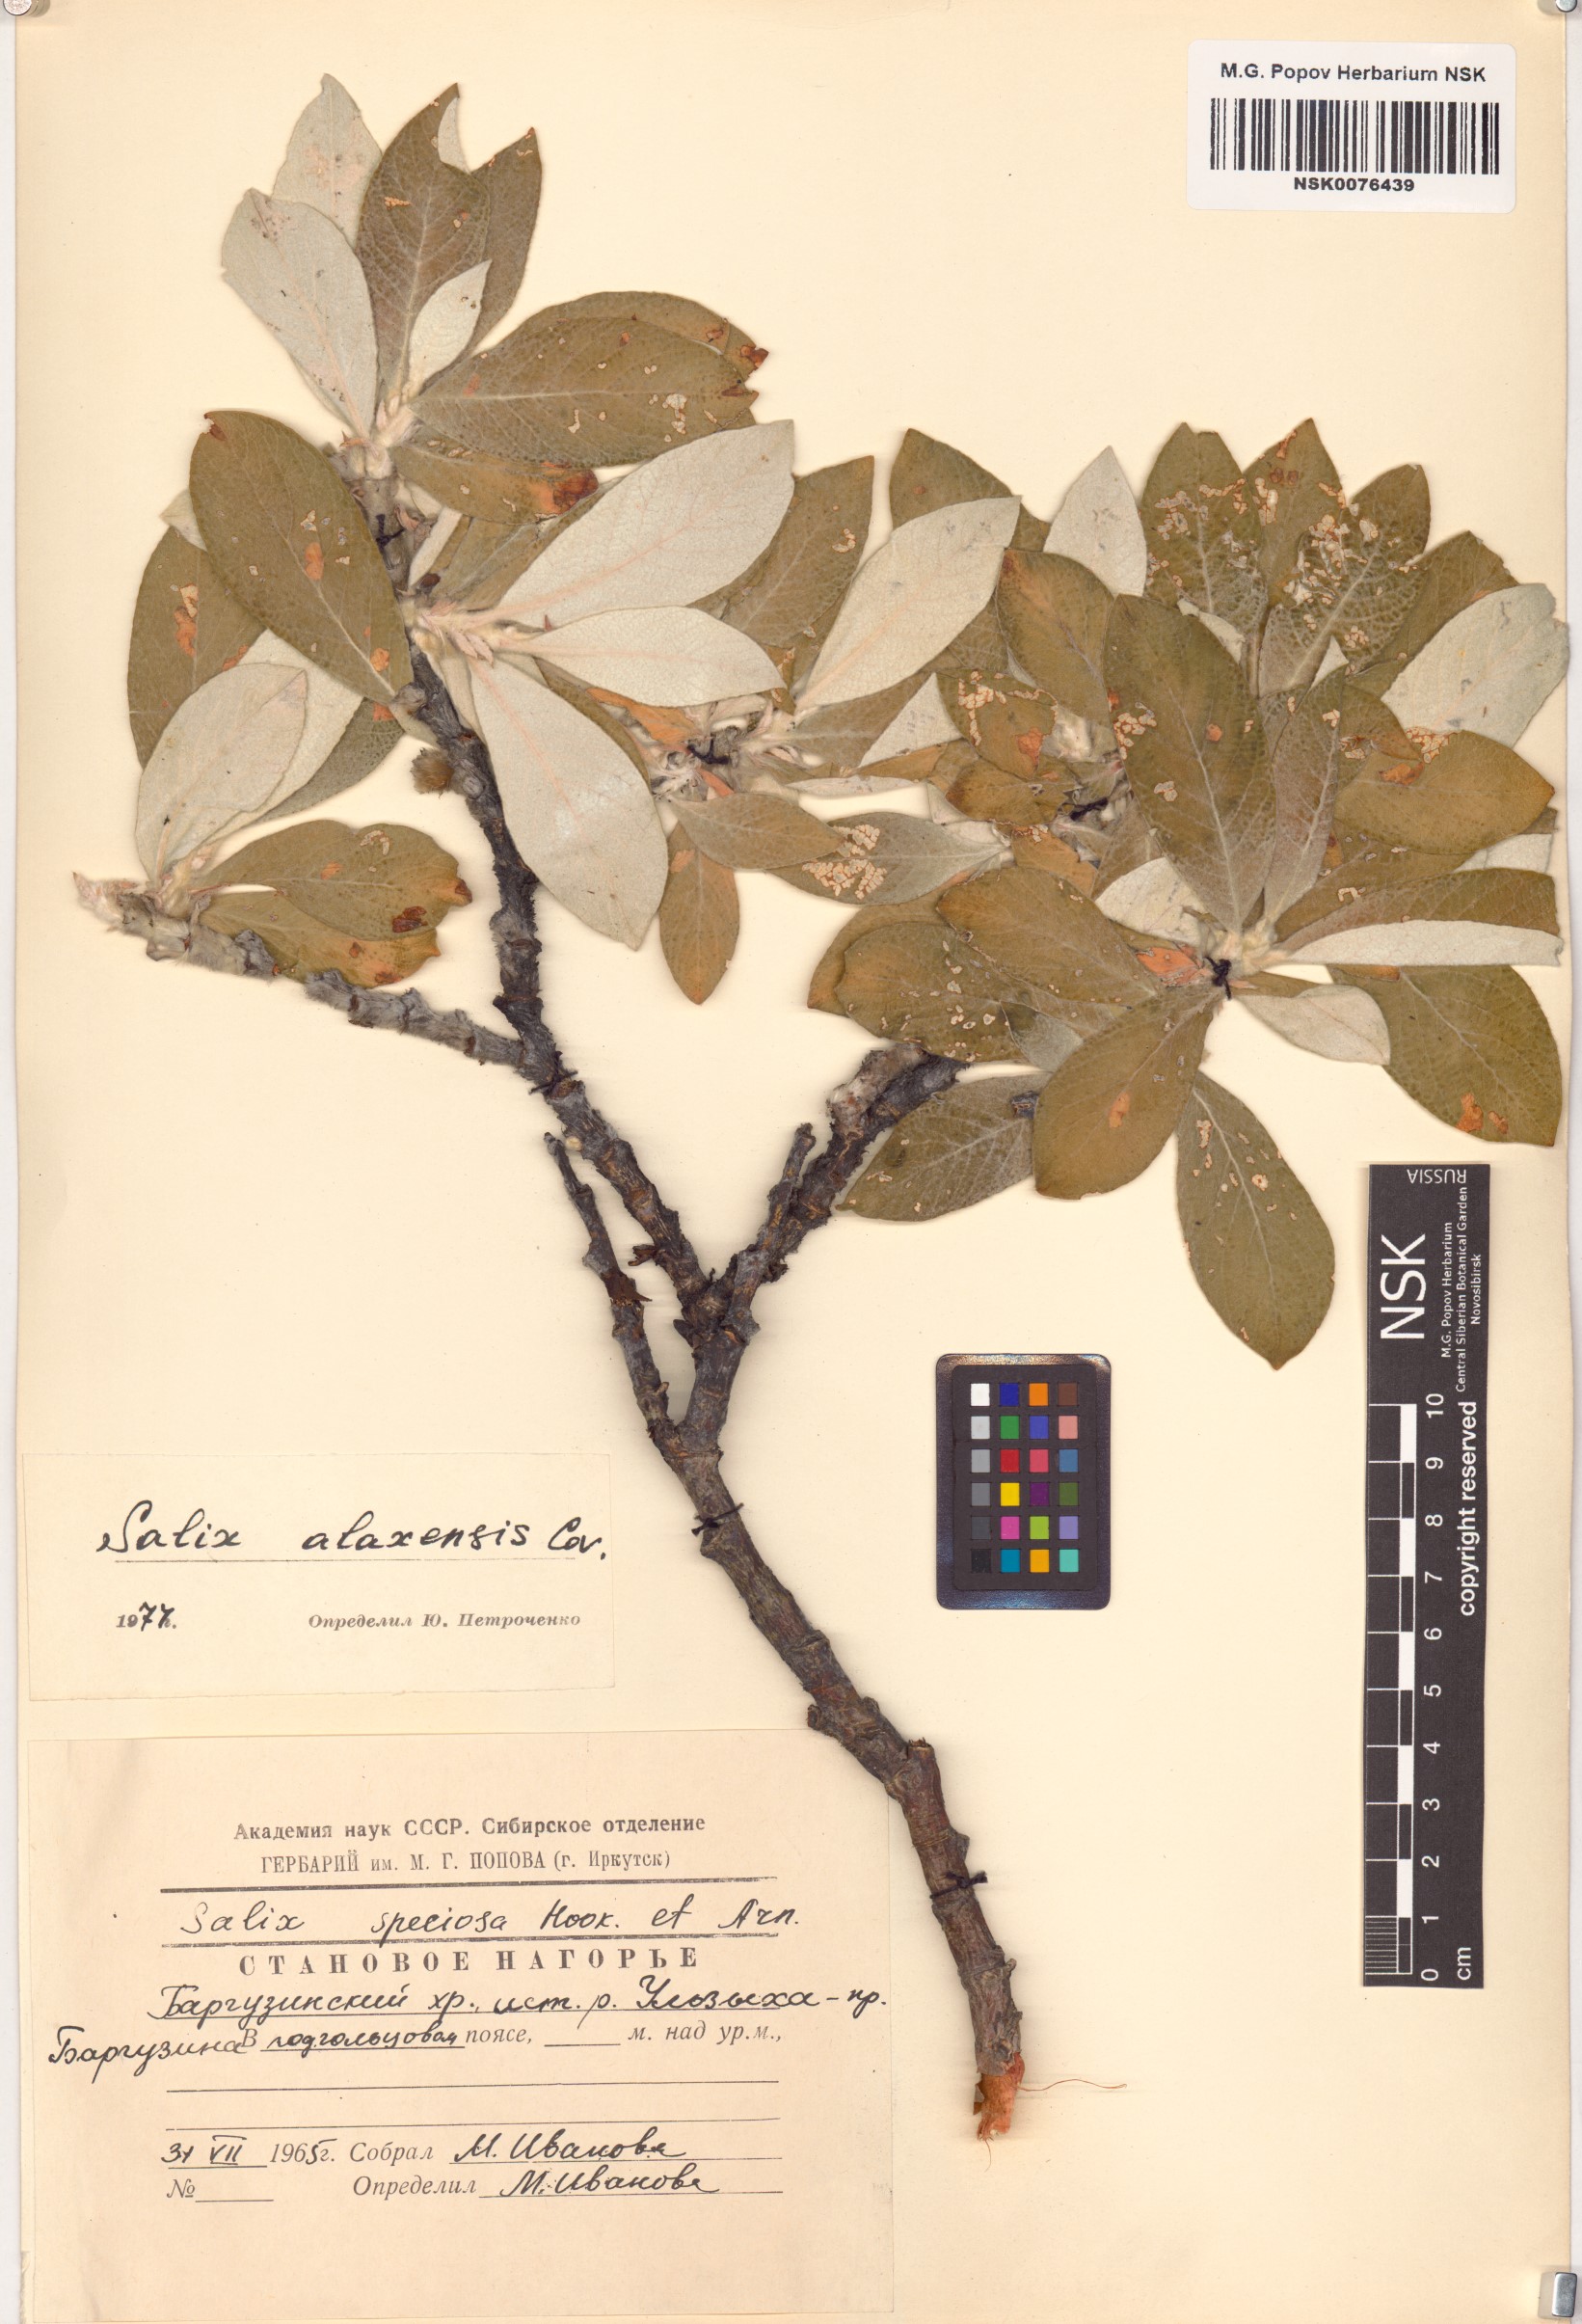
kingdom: Plantae
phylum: Tracheophyta
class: Magnoliopsida
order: Malpighiales
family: Salicaceae
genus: Salix
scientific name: Salix alaxensis
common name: Feltleaf willow
